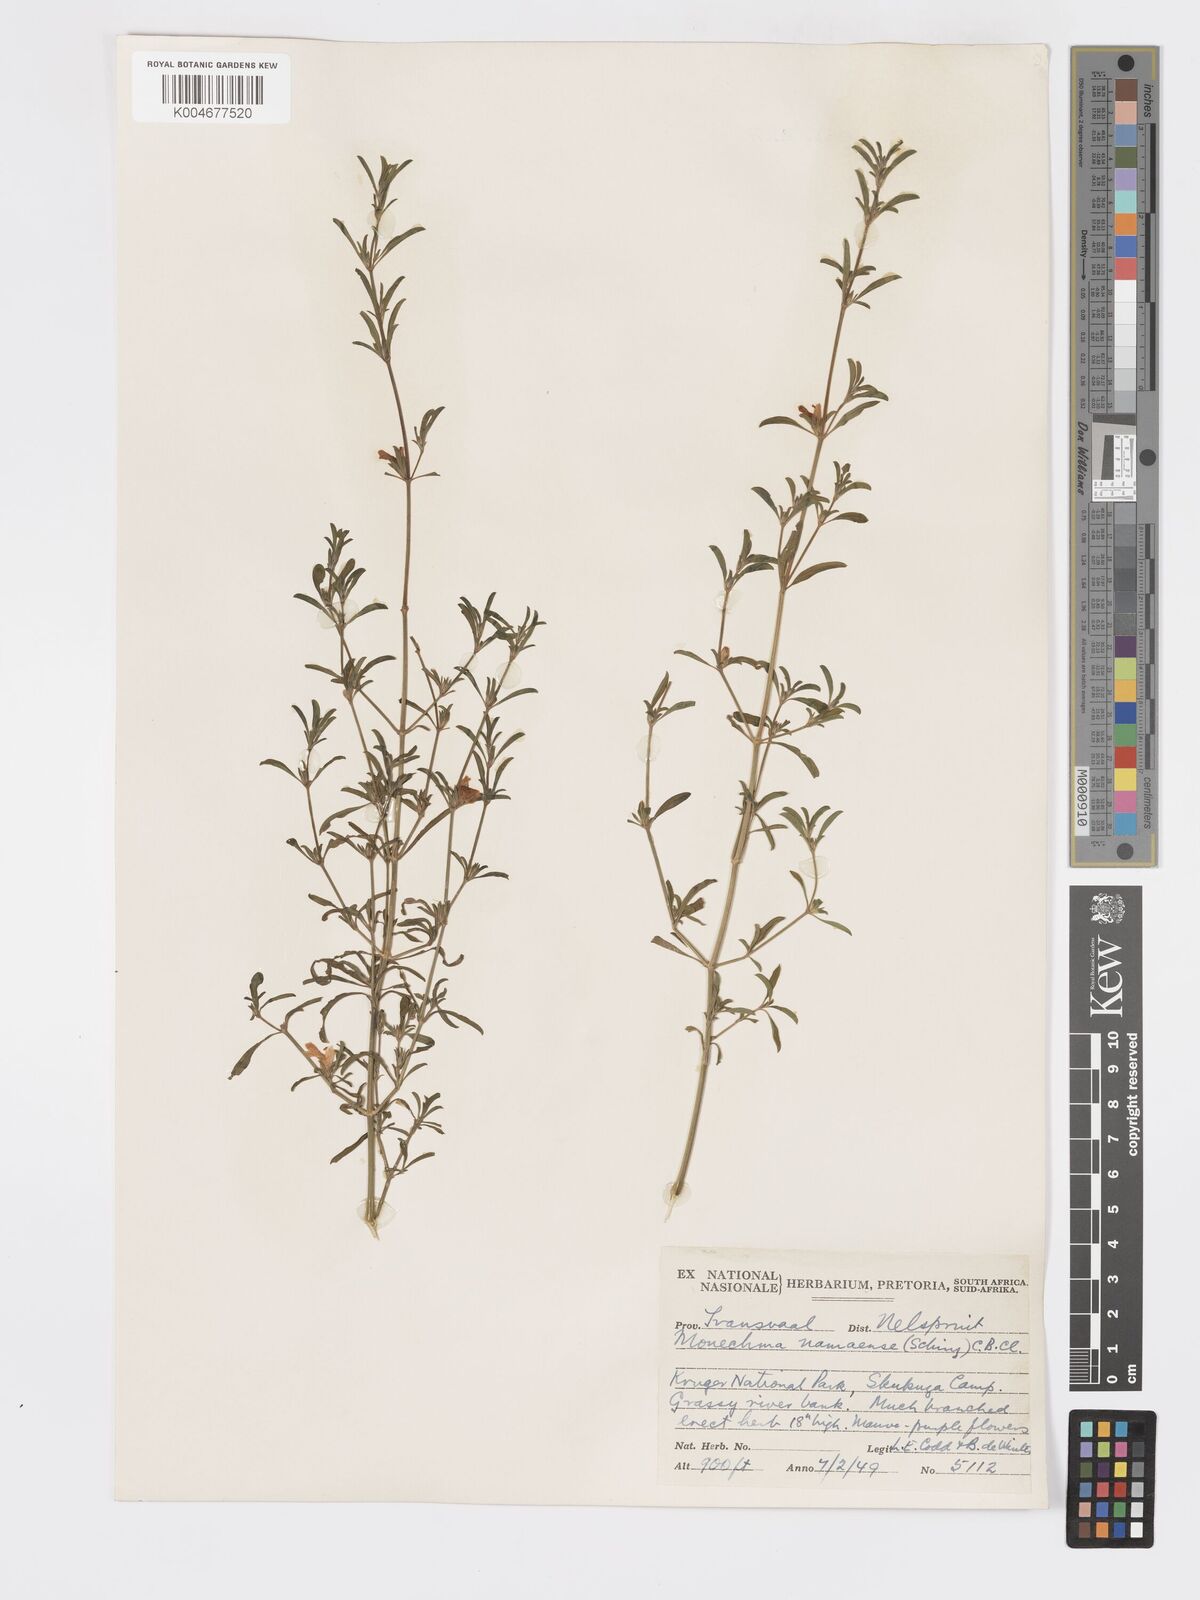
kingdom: Plantae
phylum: Tracheophyta
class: Magnoliopsida
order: Lamiales
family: Acanthaceae
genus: Pogonospermum
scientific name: Pogonospermum
